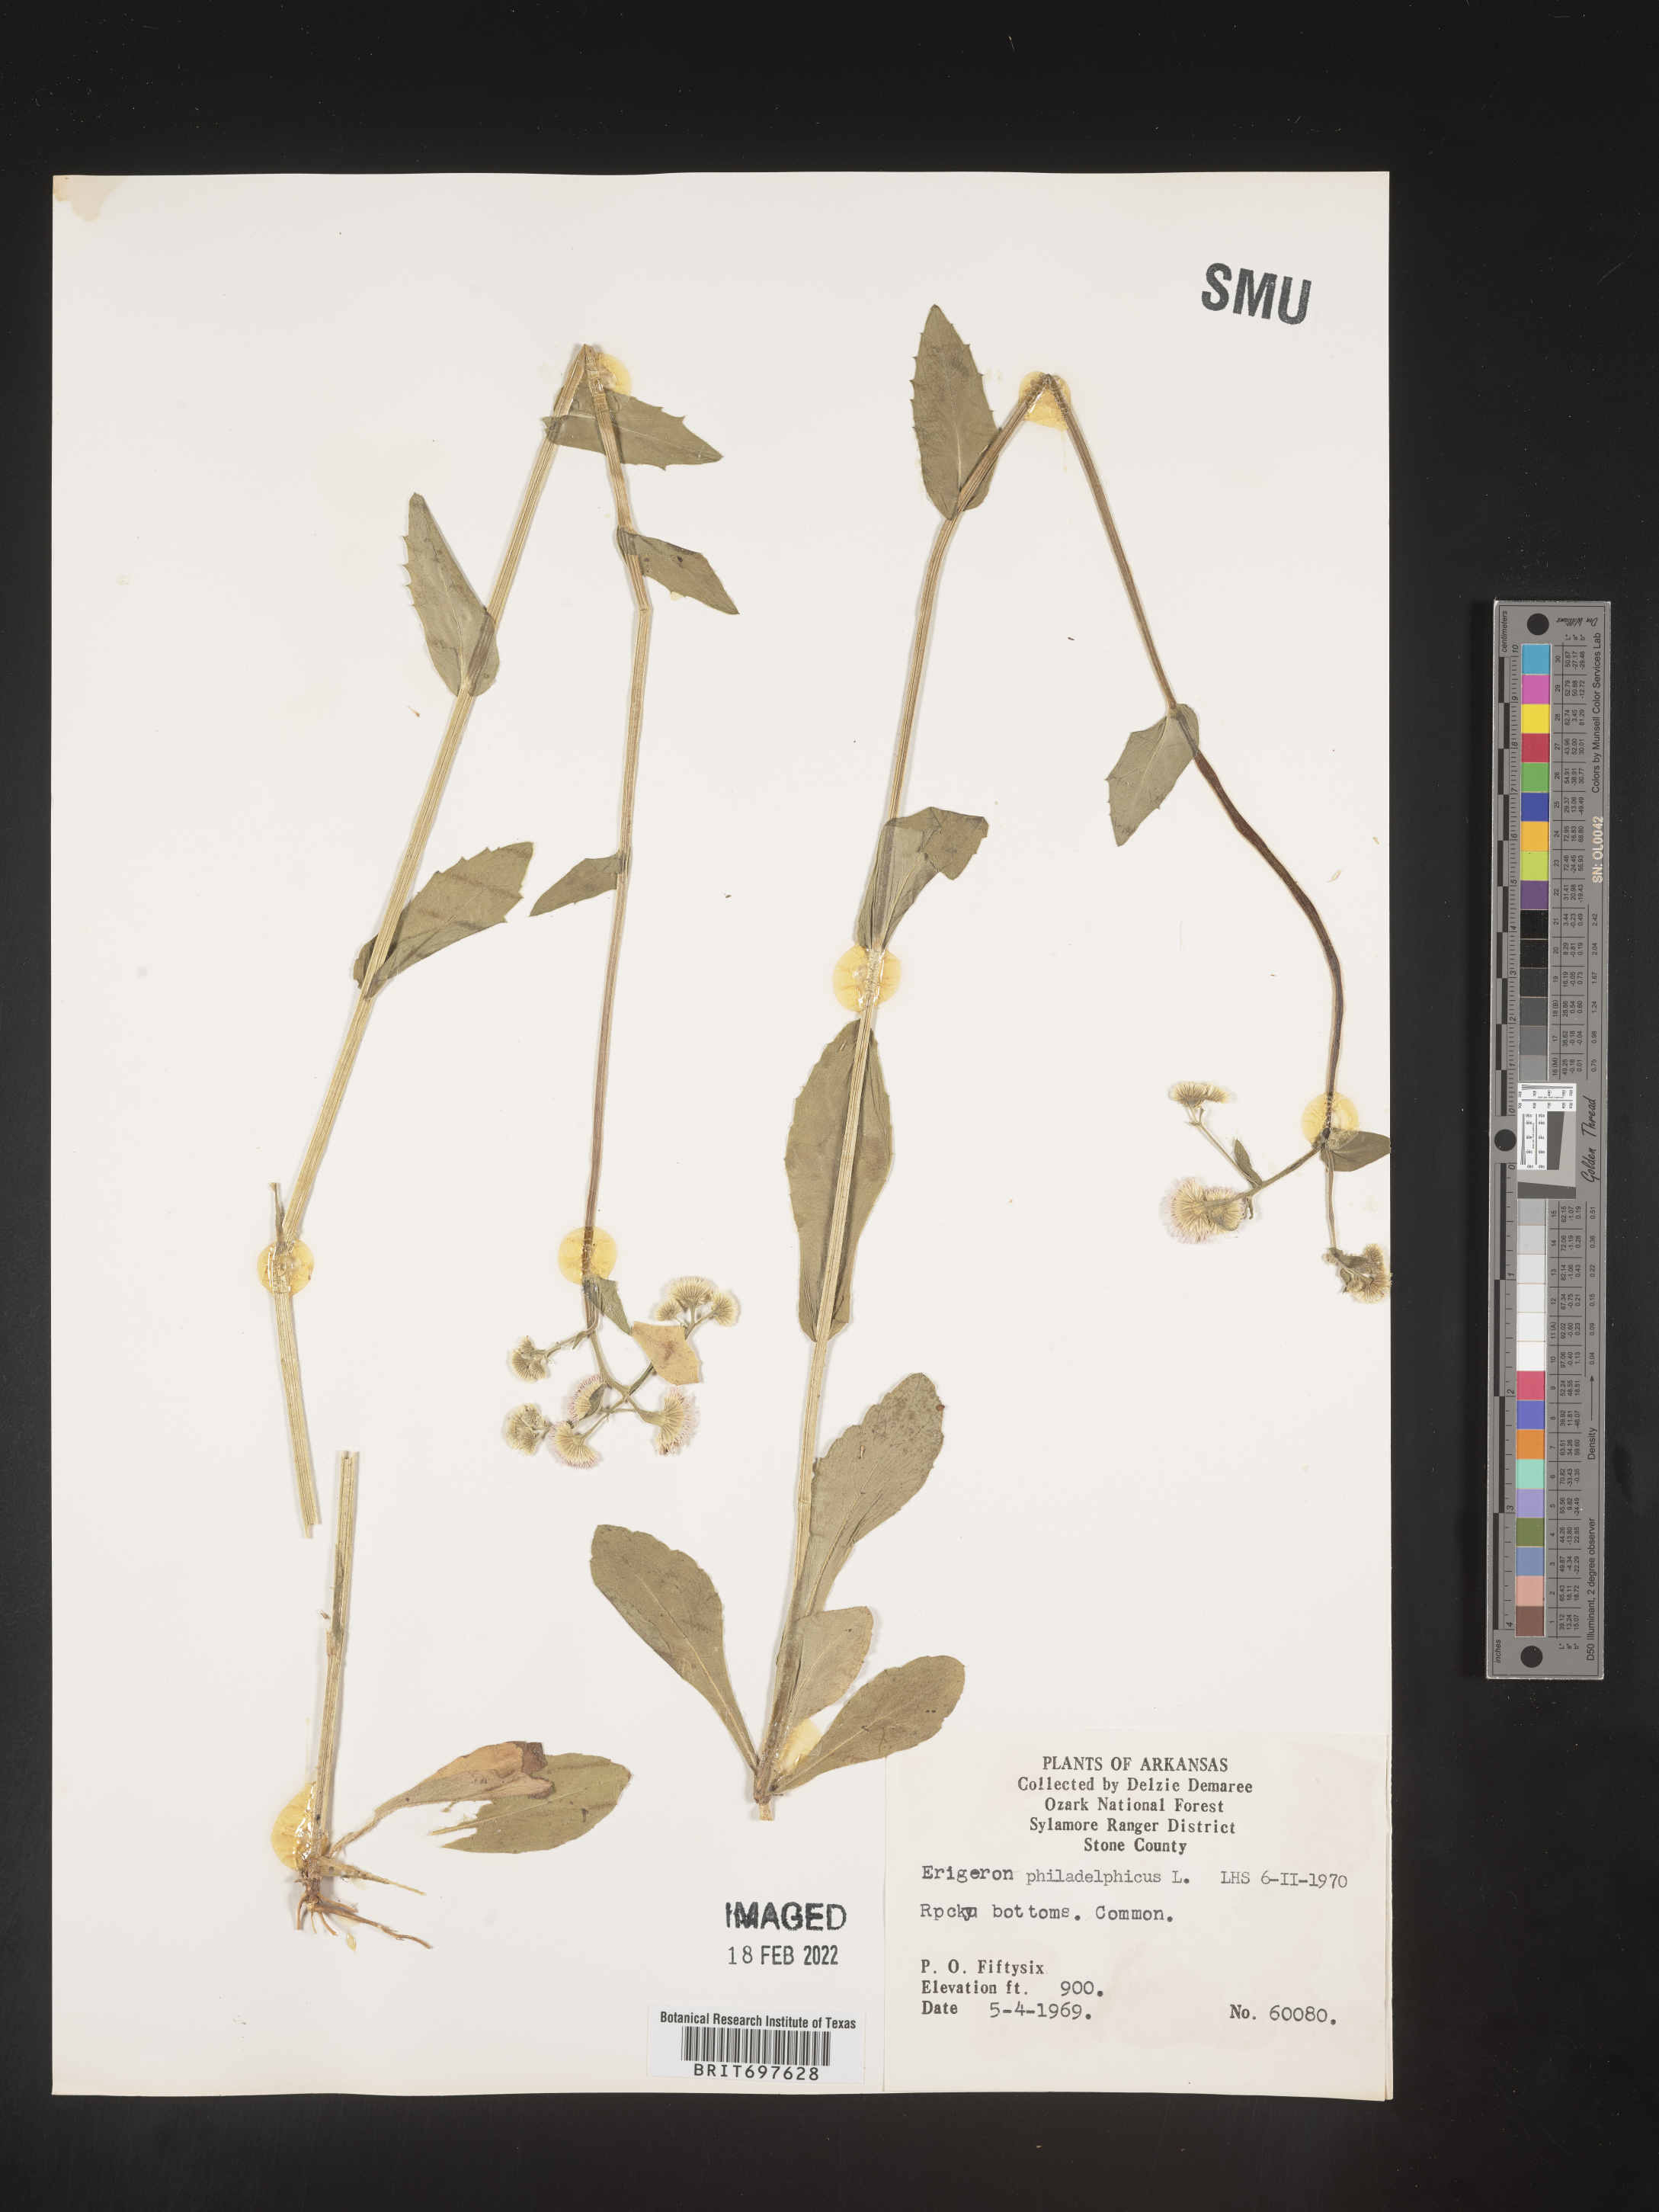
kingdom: Plantae
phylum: Tracheophyta
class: Magnoliopsida
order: Asterales
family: Asteraceae
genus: Erigeron
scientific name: Erigeron philadelphicus
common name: Robin's-plantain
